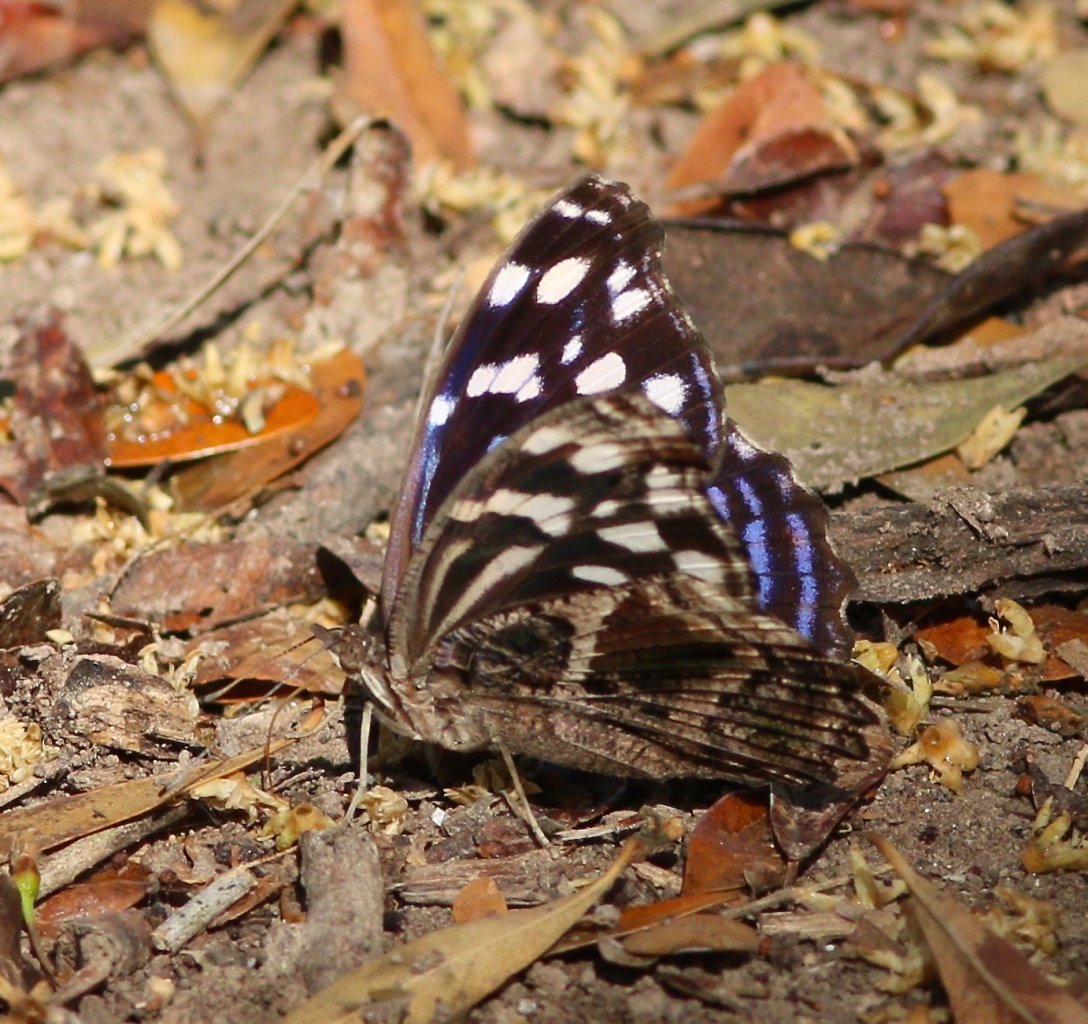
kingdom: Animalia
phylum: Arthropoda
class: Insecta
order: Lepidoptera
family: Nymphalidae
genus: Myscelia
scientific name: Myscelia ethusa
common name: Mexican Bluewing
